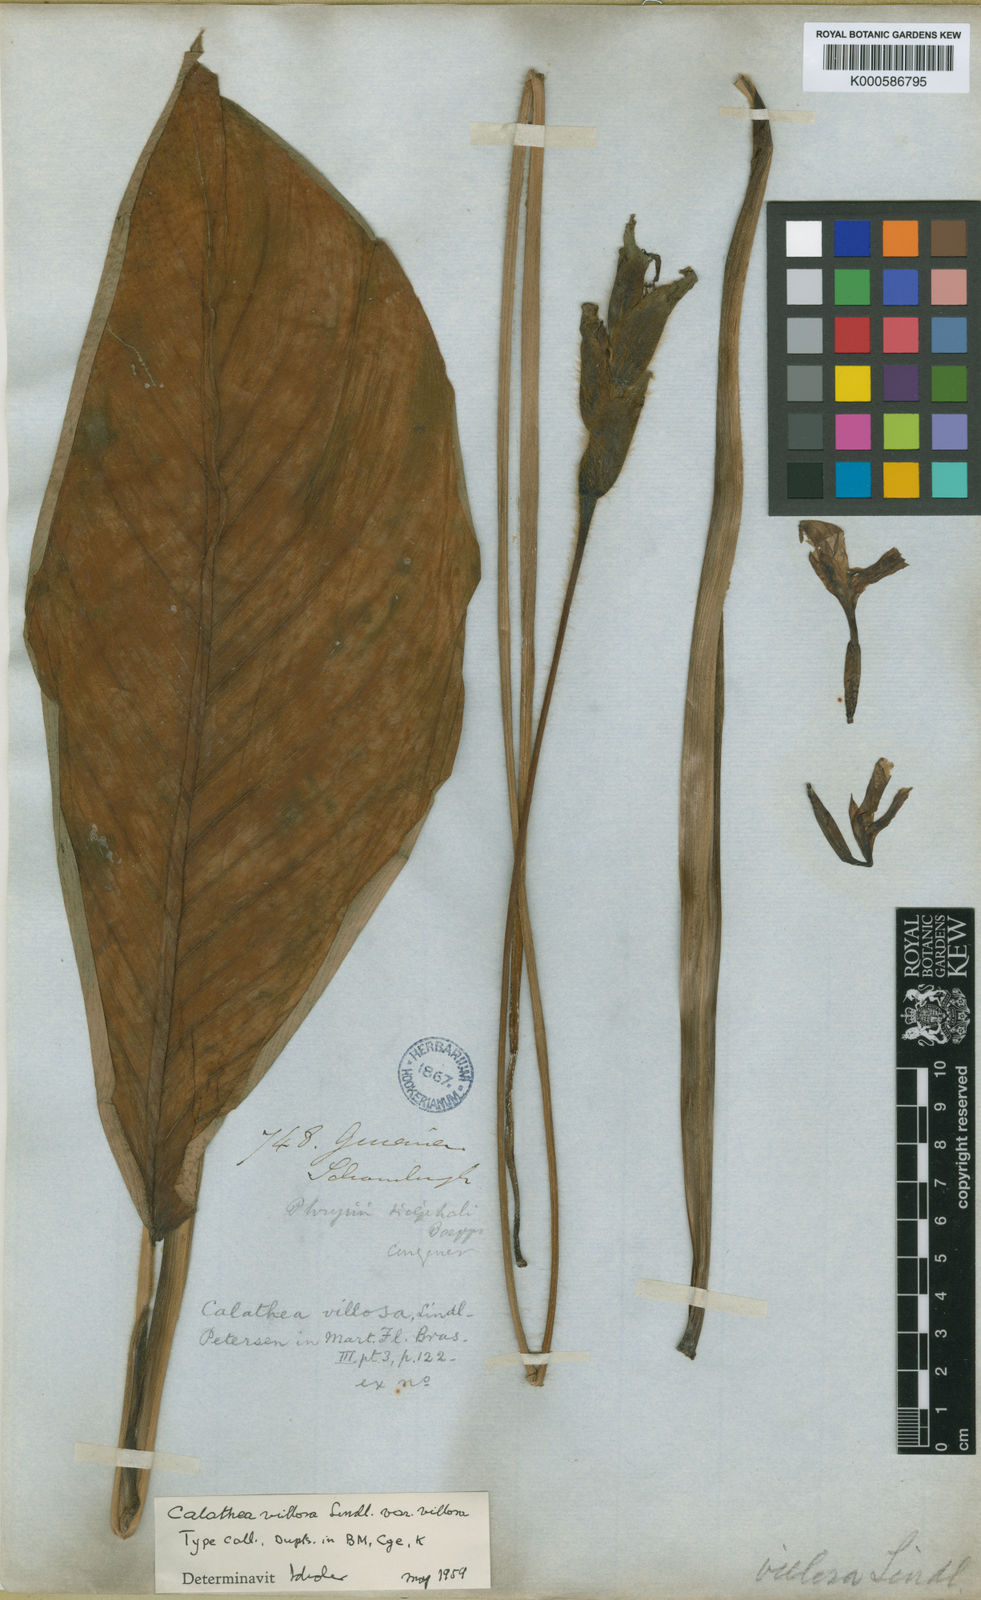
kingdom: Plantae
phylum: Tracheophyta
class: Liliopsida
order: Zingiberales
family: Marantaceae
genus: Goeppertia
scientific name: Goeppertia villosa
